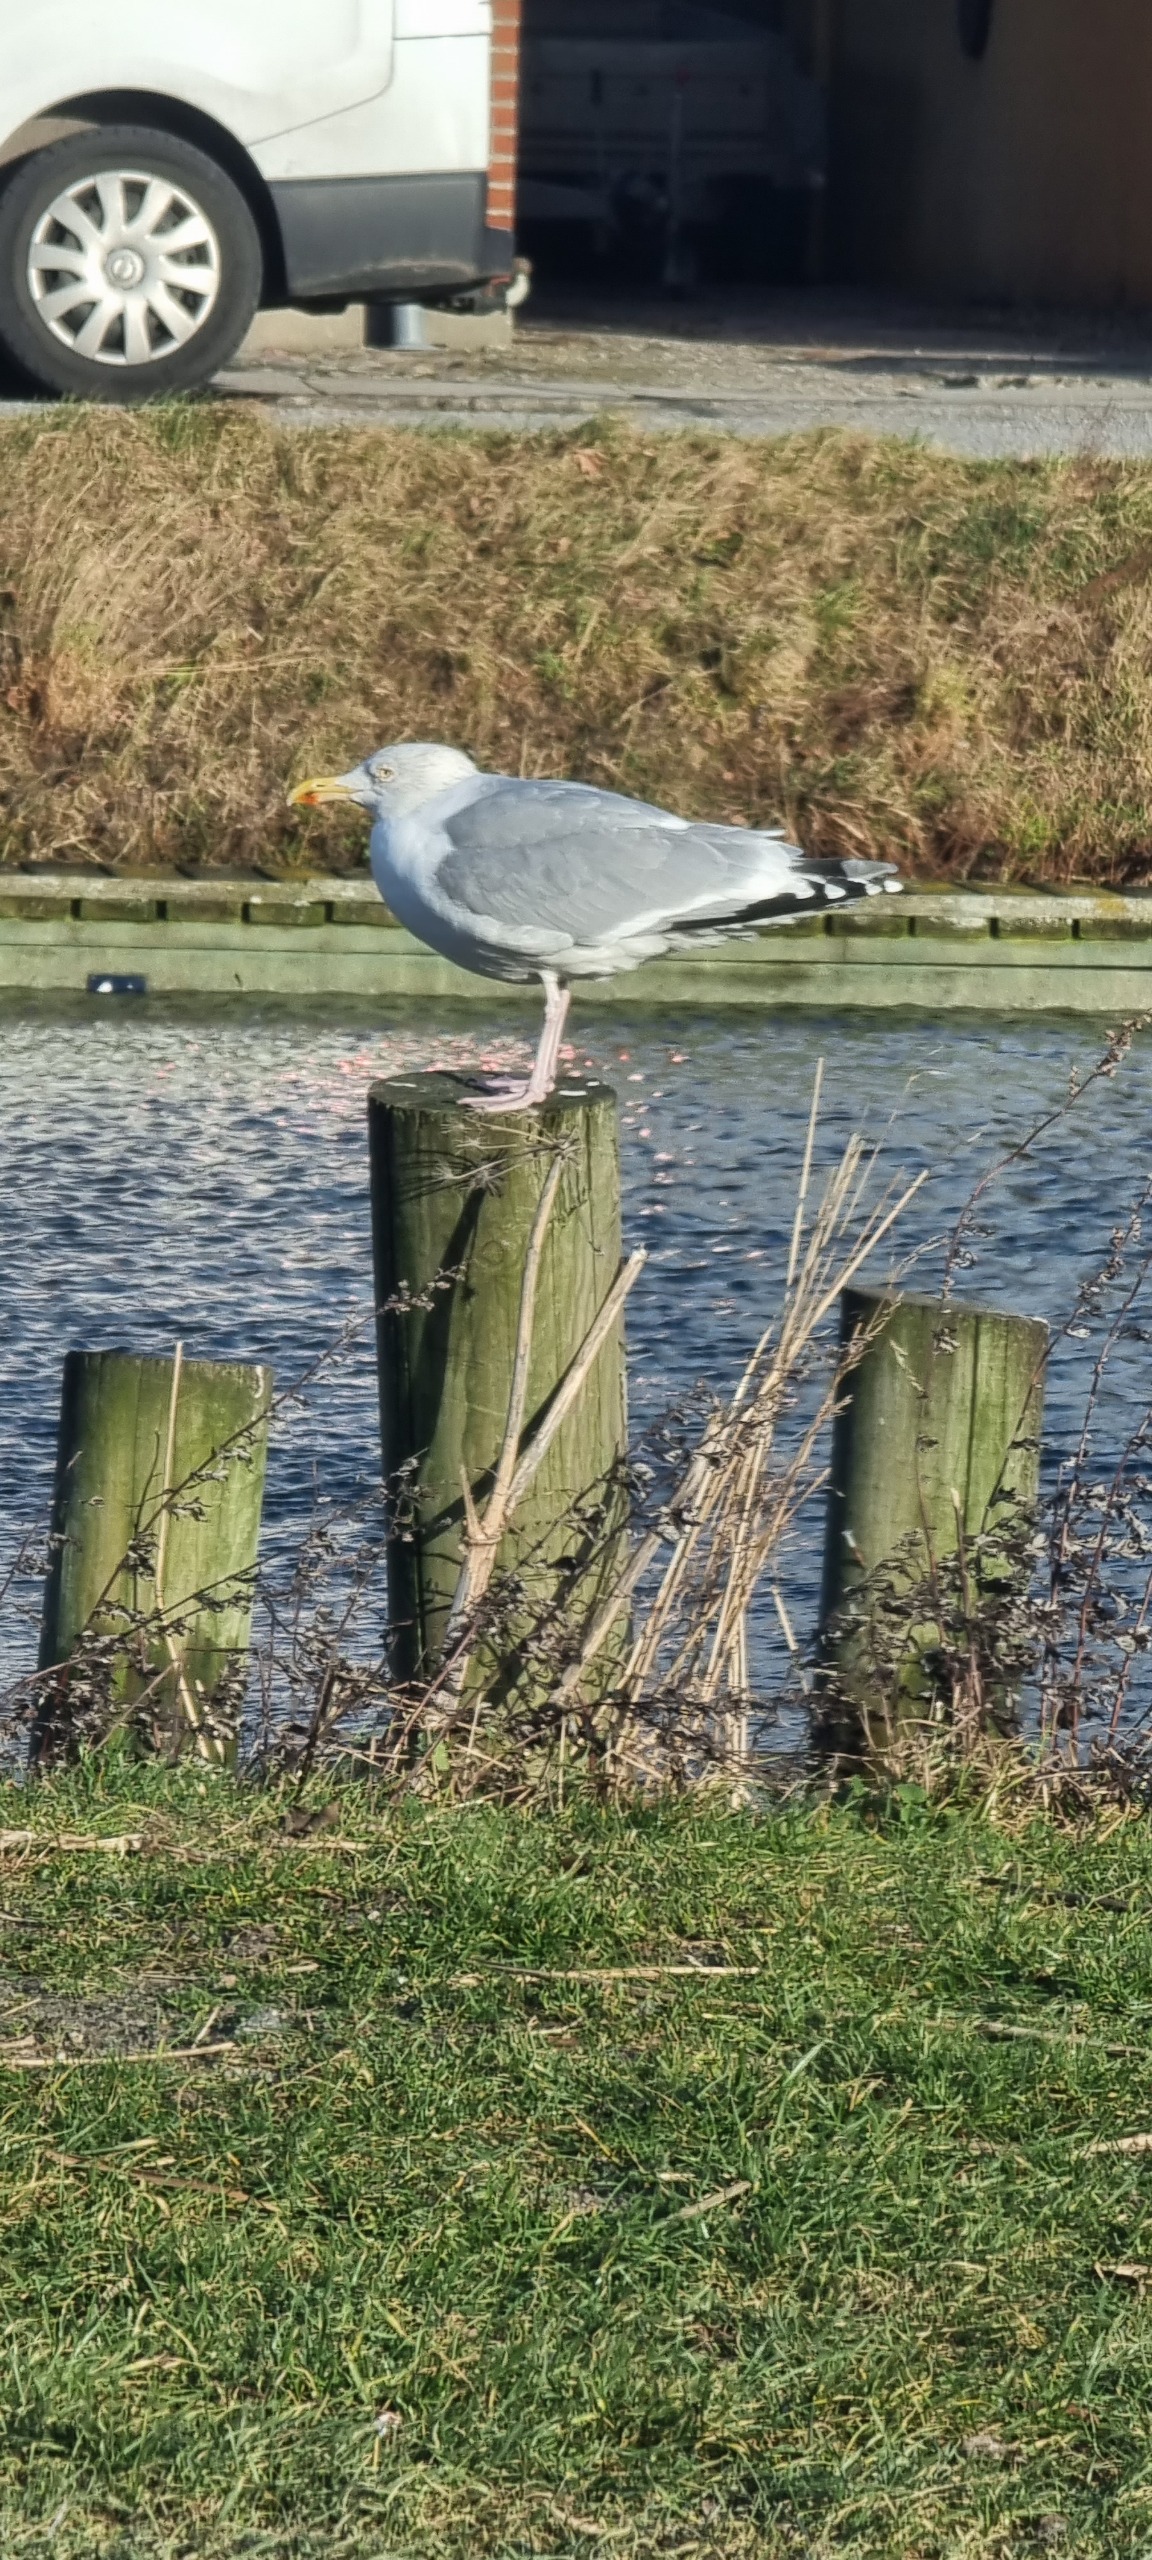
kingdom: Animalia
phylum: Chordata
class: Aves
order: Charadriiformes
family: Laridae
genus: Larus
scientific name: Larus argentatus
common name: Sølvmåge
